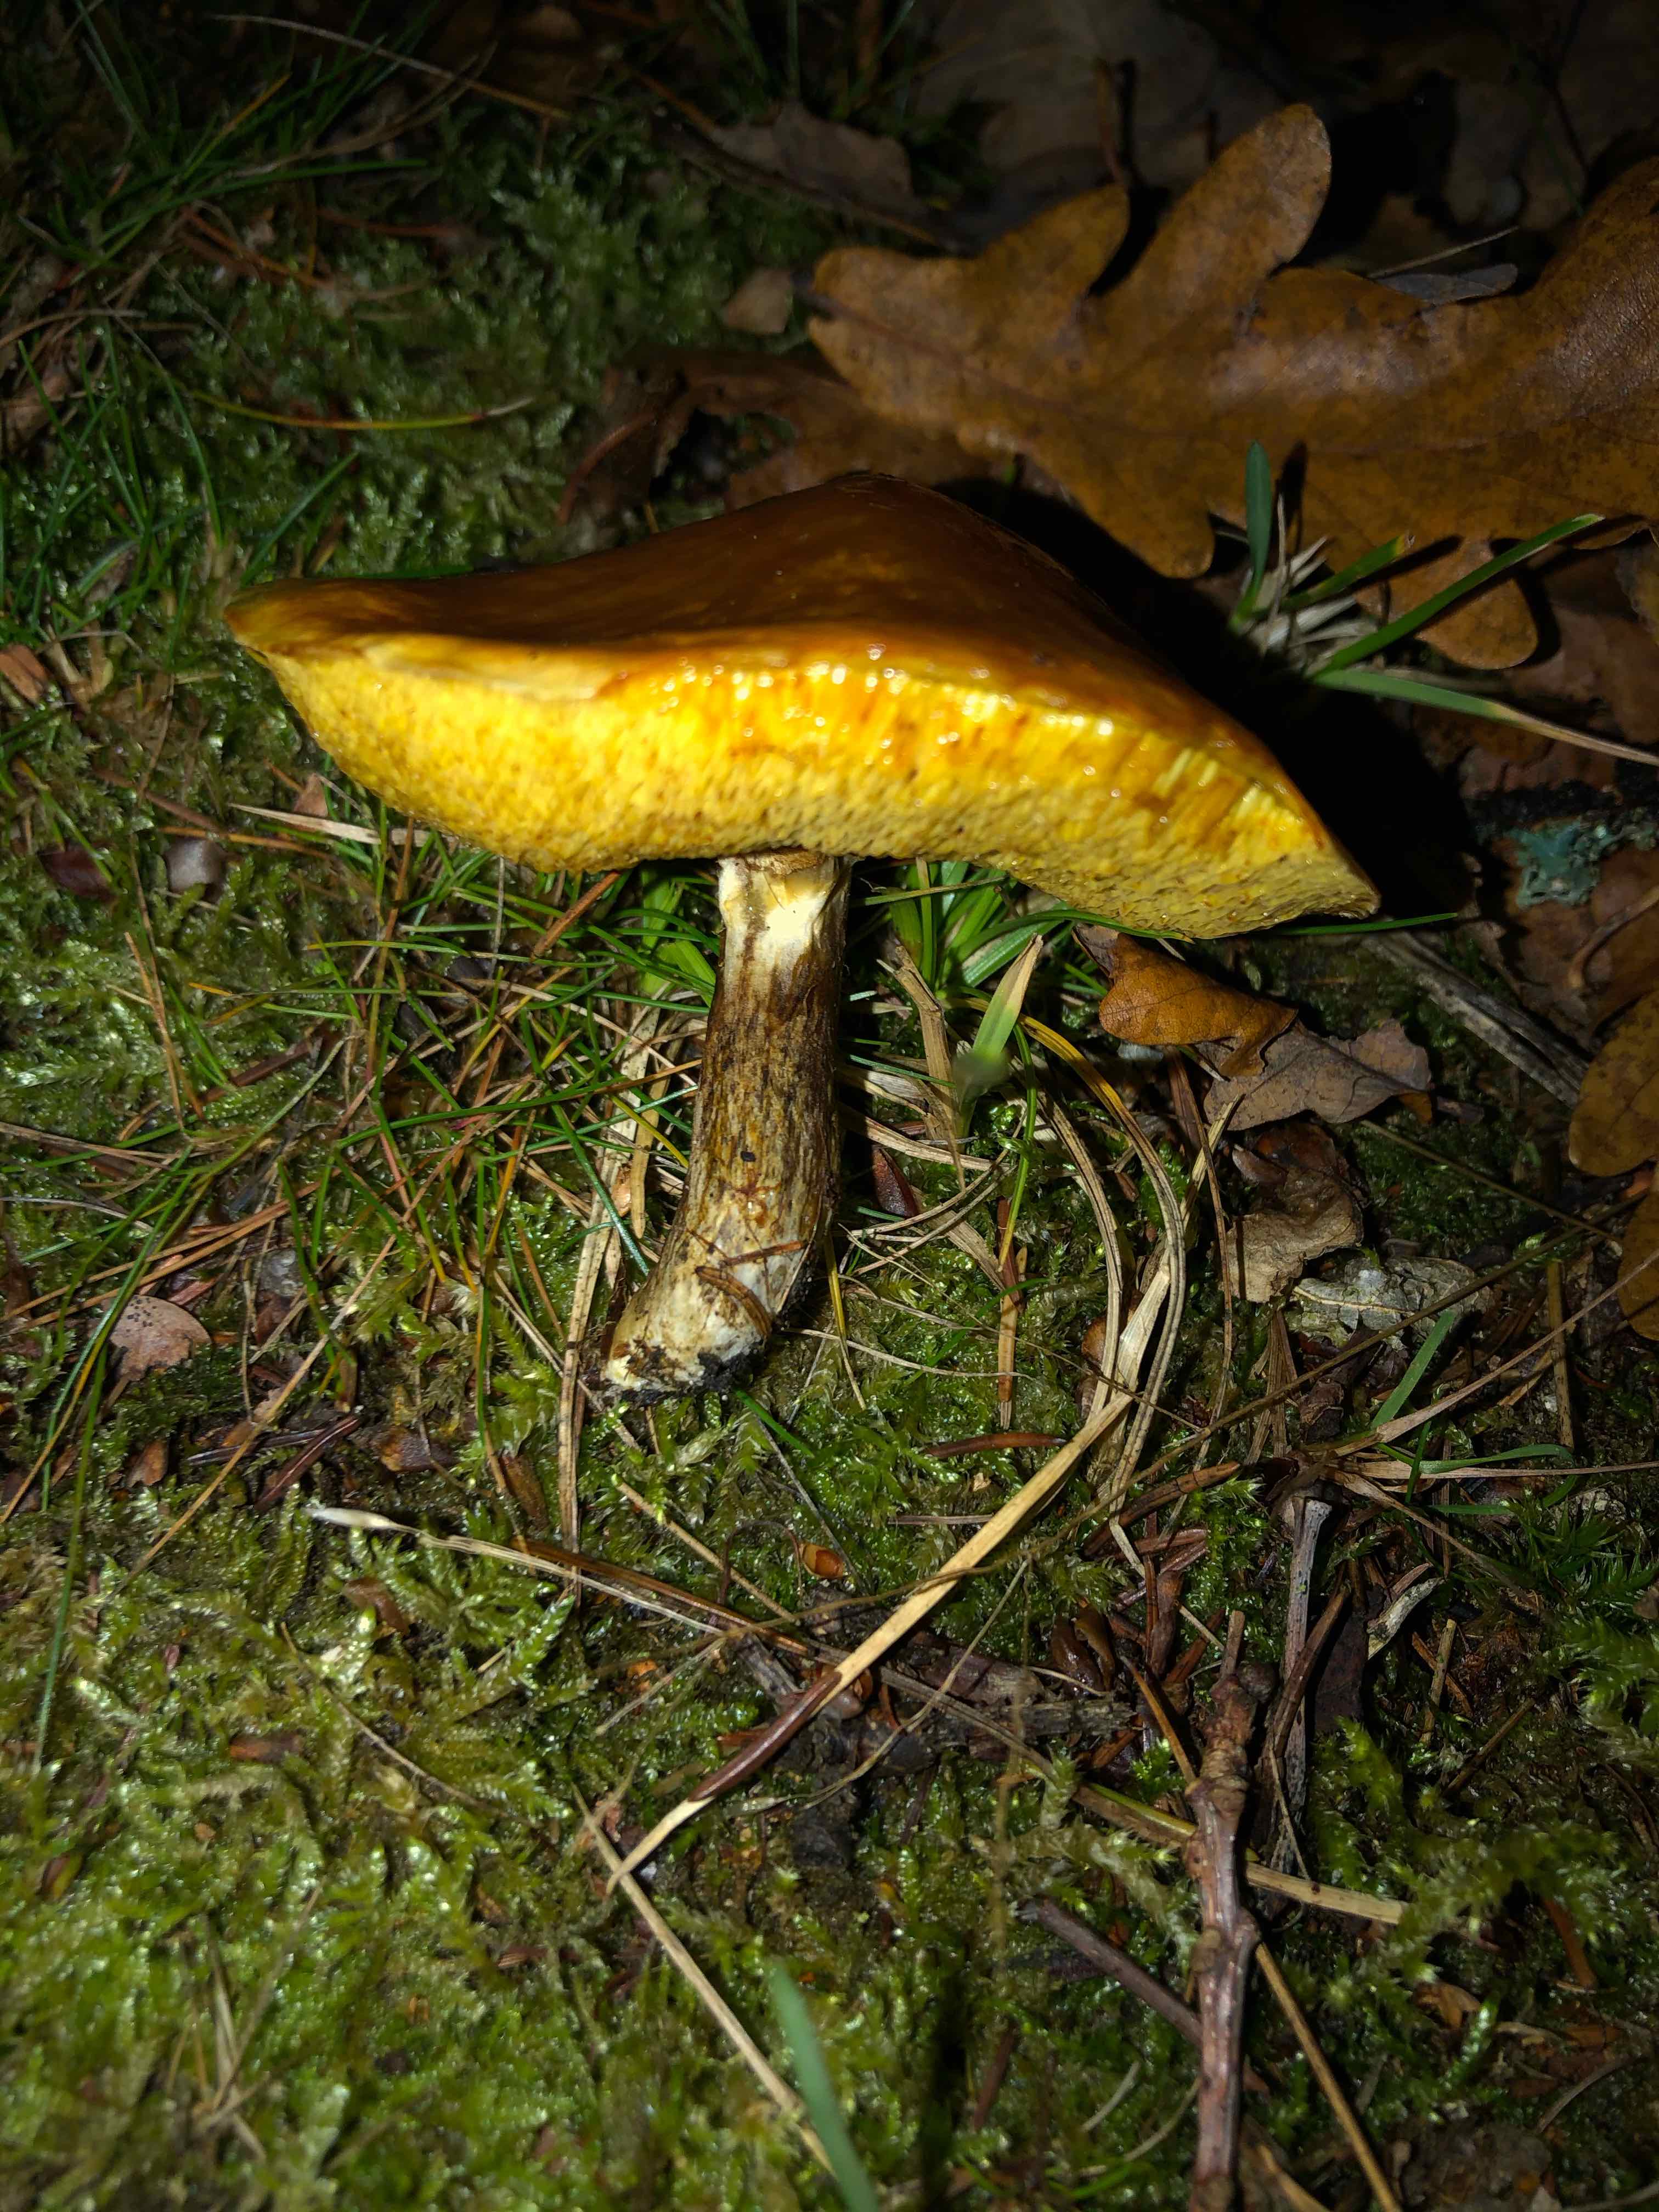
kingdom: Fungi
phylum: Basidiomycota
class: Agaricomycetes
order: Boletales
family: Suillaceae
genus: Suillus
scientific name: Suillus grevillei
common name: lærke-slimrørhat
